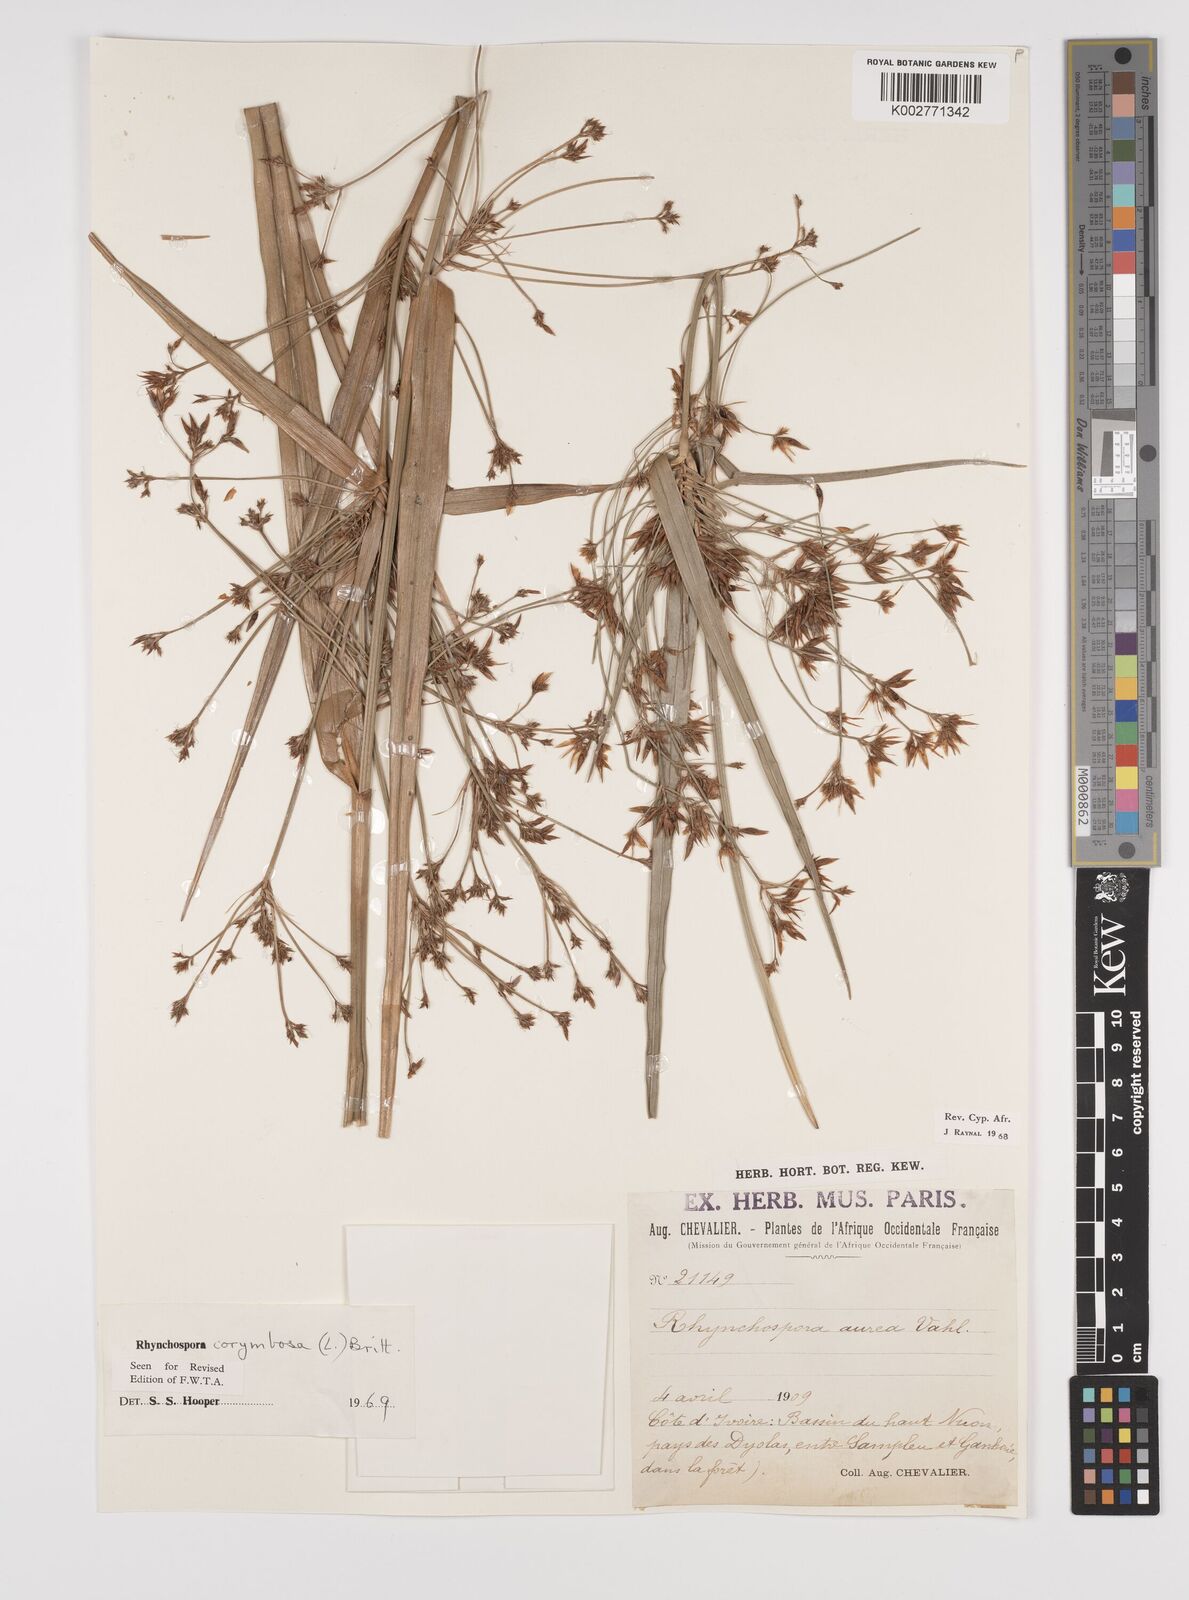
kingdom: Plantae
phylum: Tracheophyta
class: Liliopsida
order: Poales
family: Cyperaceae
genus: Rhynchospora
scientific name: Rhynchospora corymbosa
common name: Golden beak sedge
